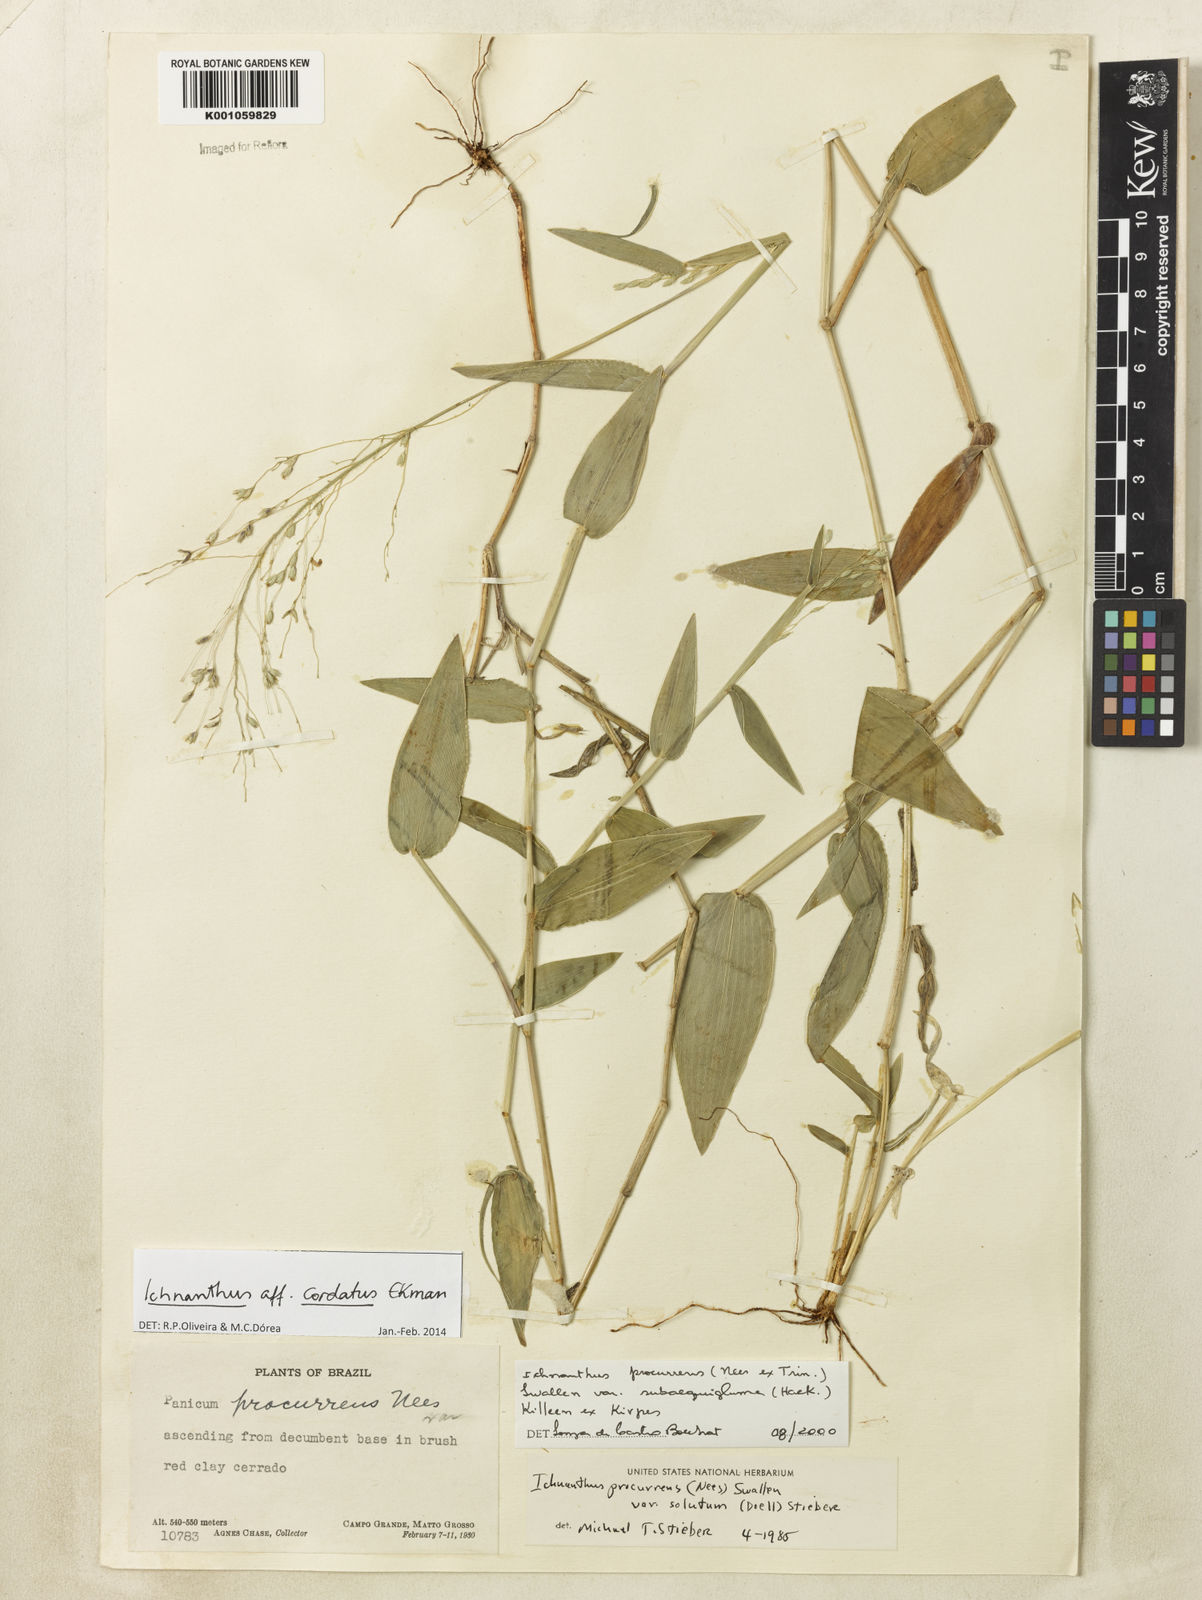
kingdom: Plantae
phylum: Tracheophyta
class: Liliopsida
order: Poales
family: Poaceae
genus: Oedochloa
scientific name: Oedochloa mayarensis
